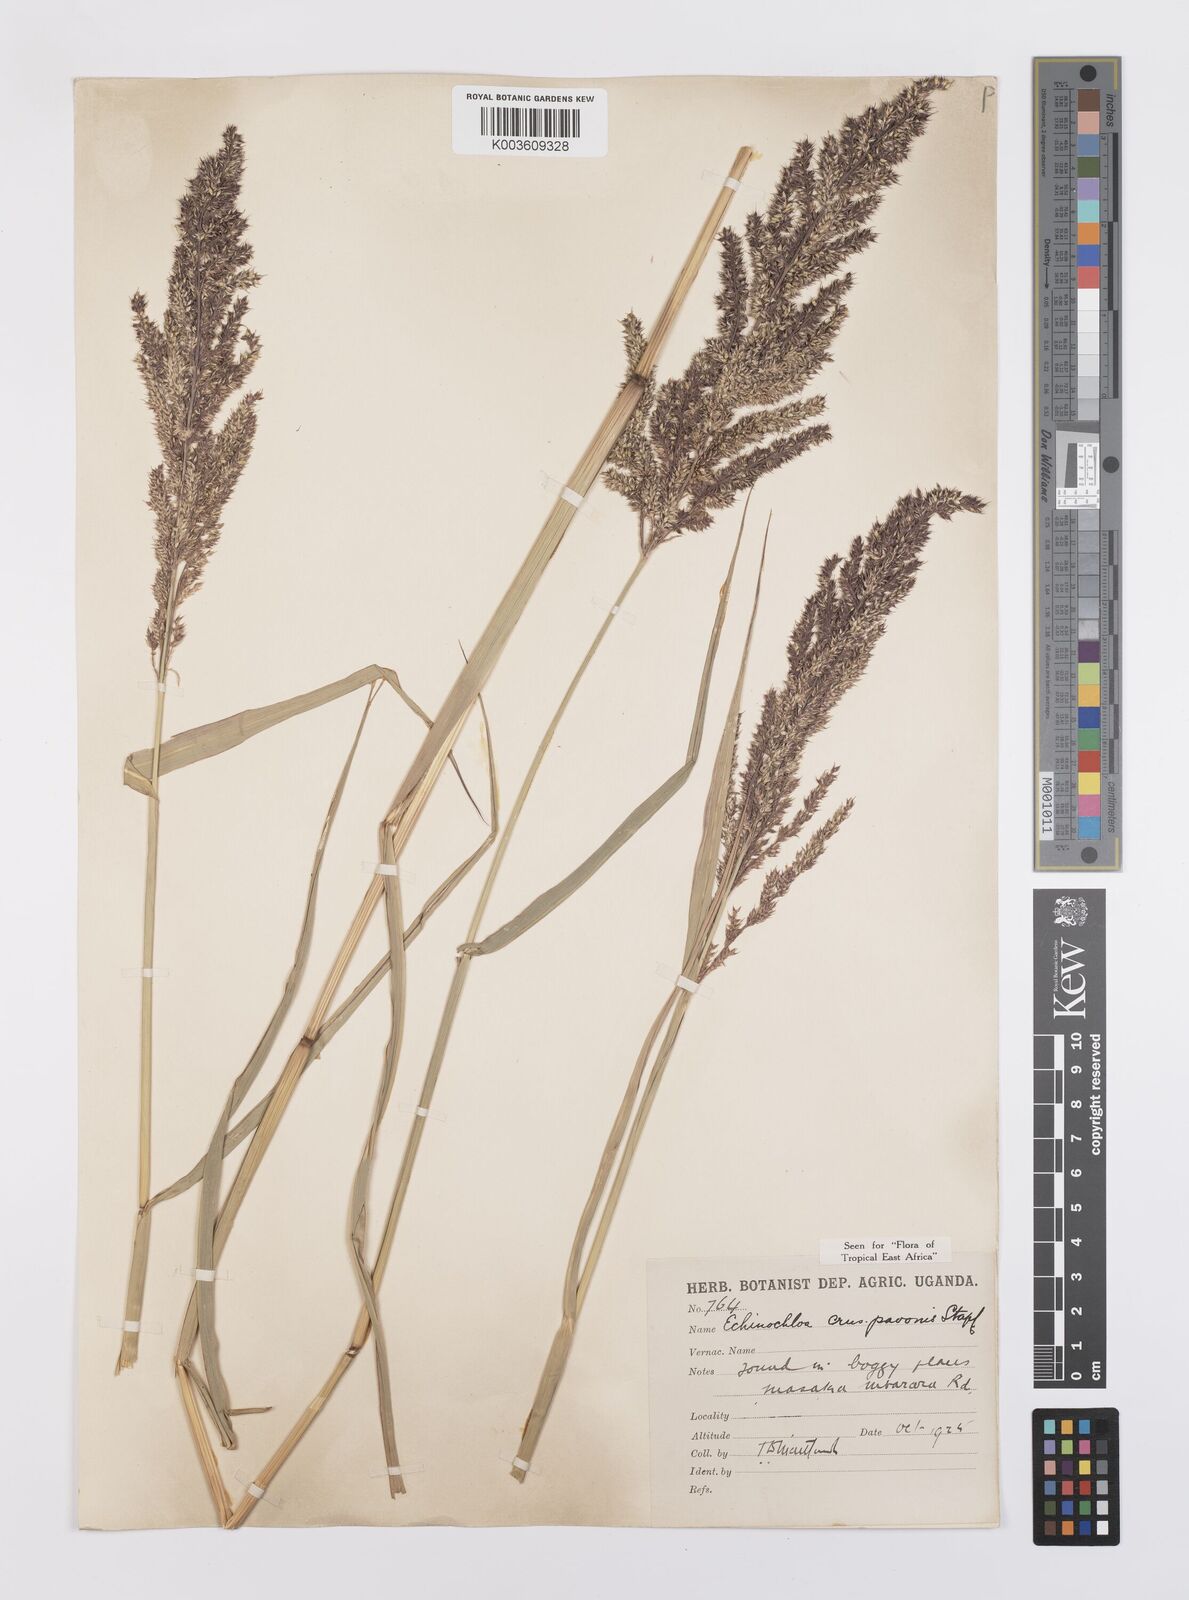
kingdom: Plantae
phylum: Tracheophyta
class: Liliopsida
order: Poales
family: Poaceae
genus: Echinochloa
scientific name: Echinochloa crus-pavonis
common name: Gulf cockspur grass
